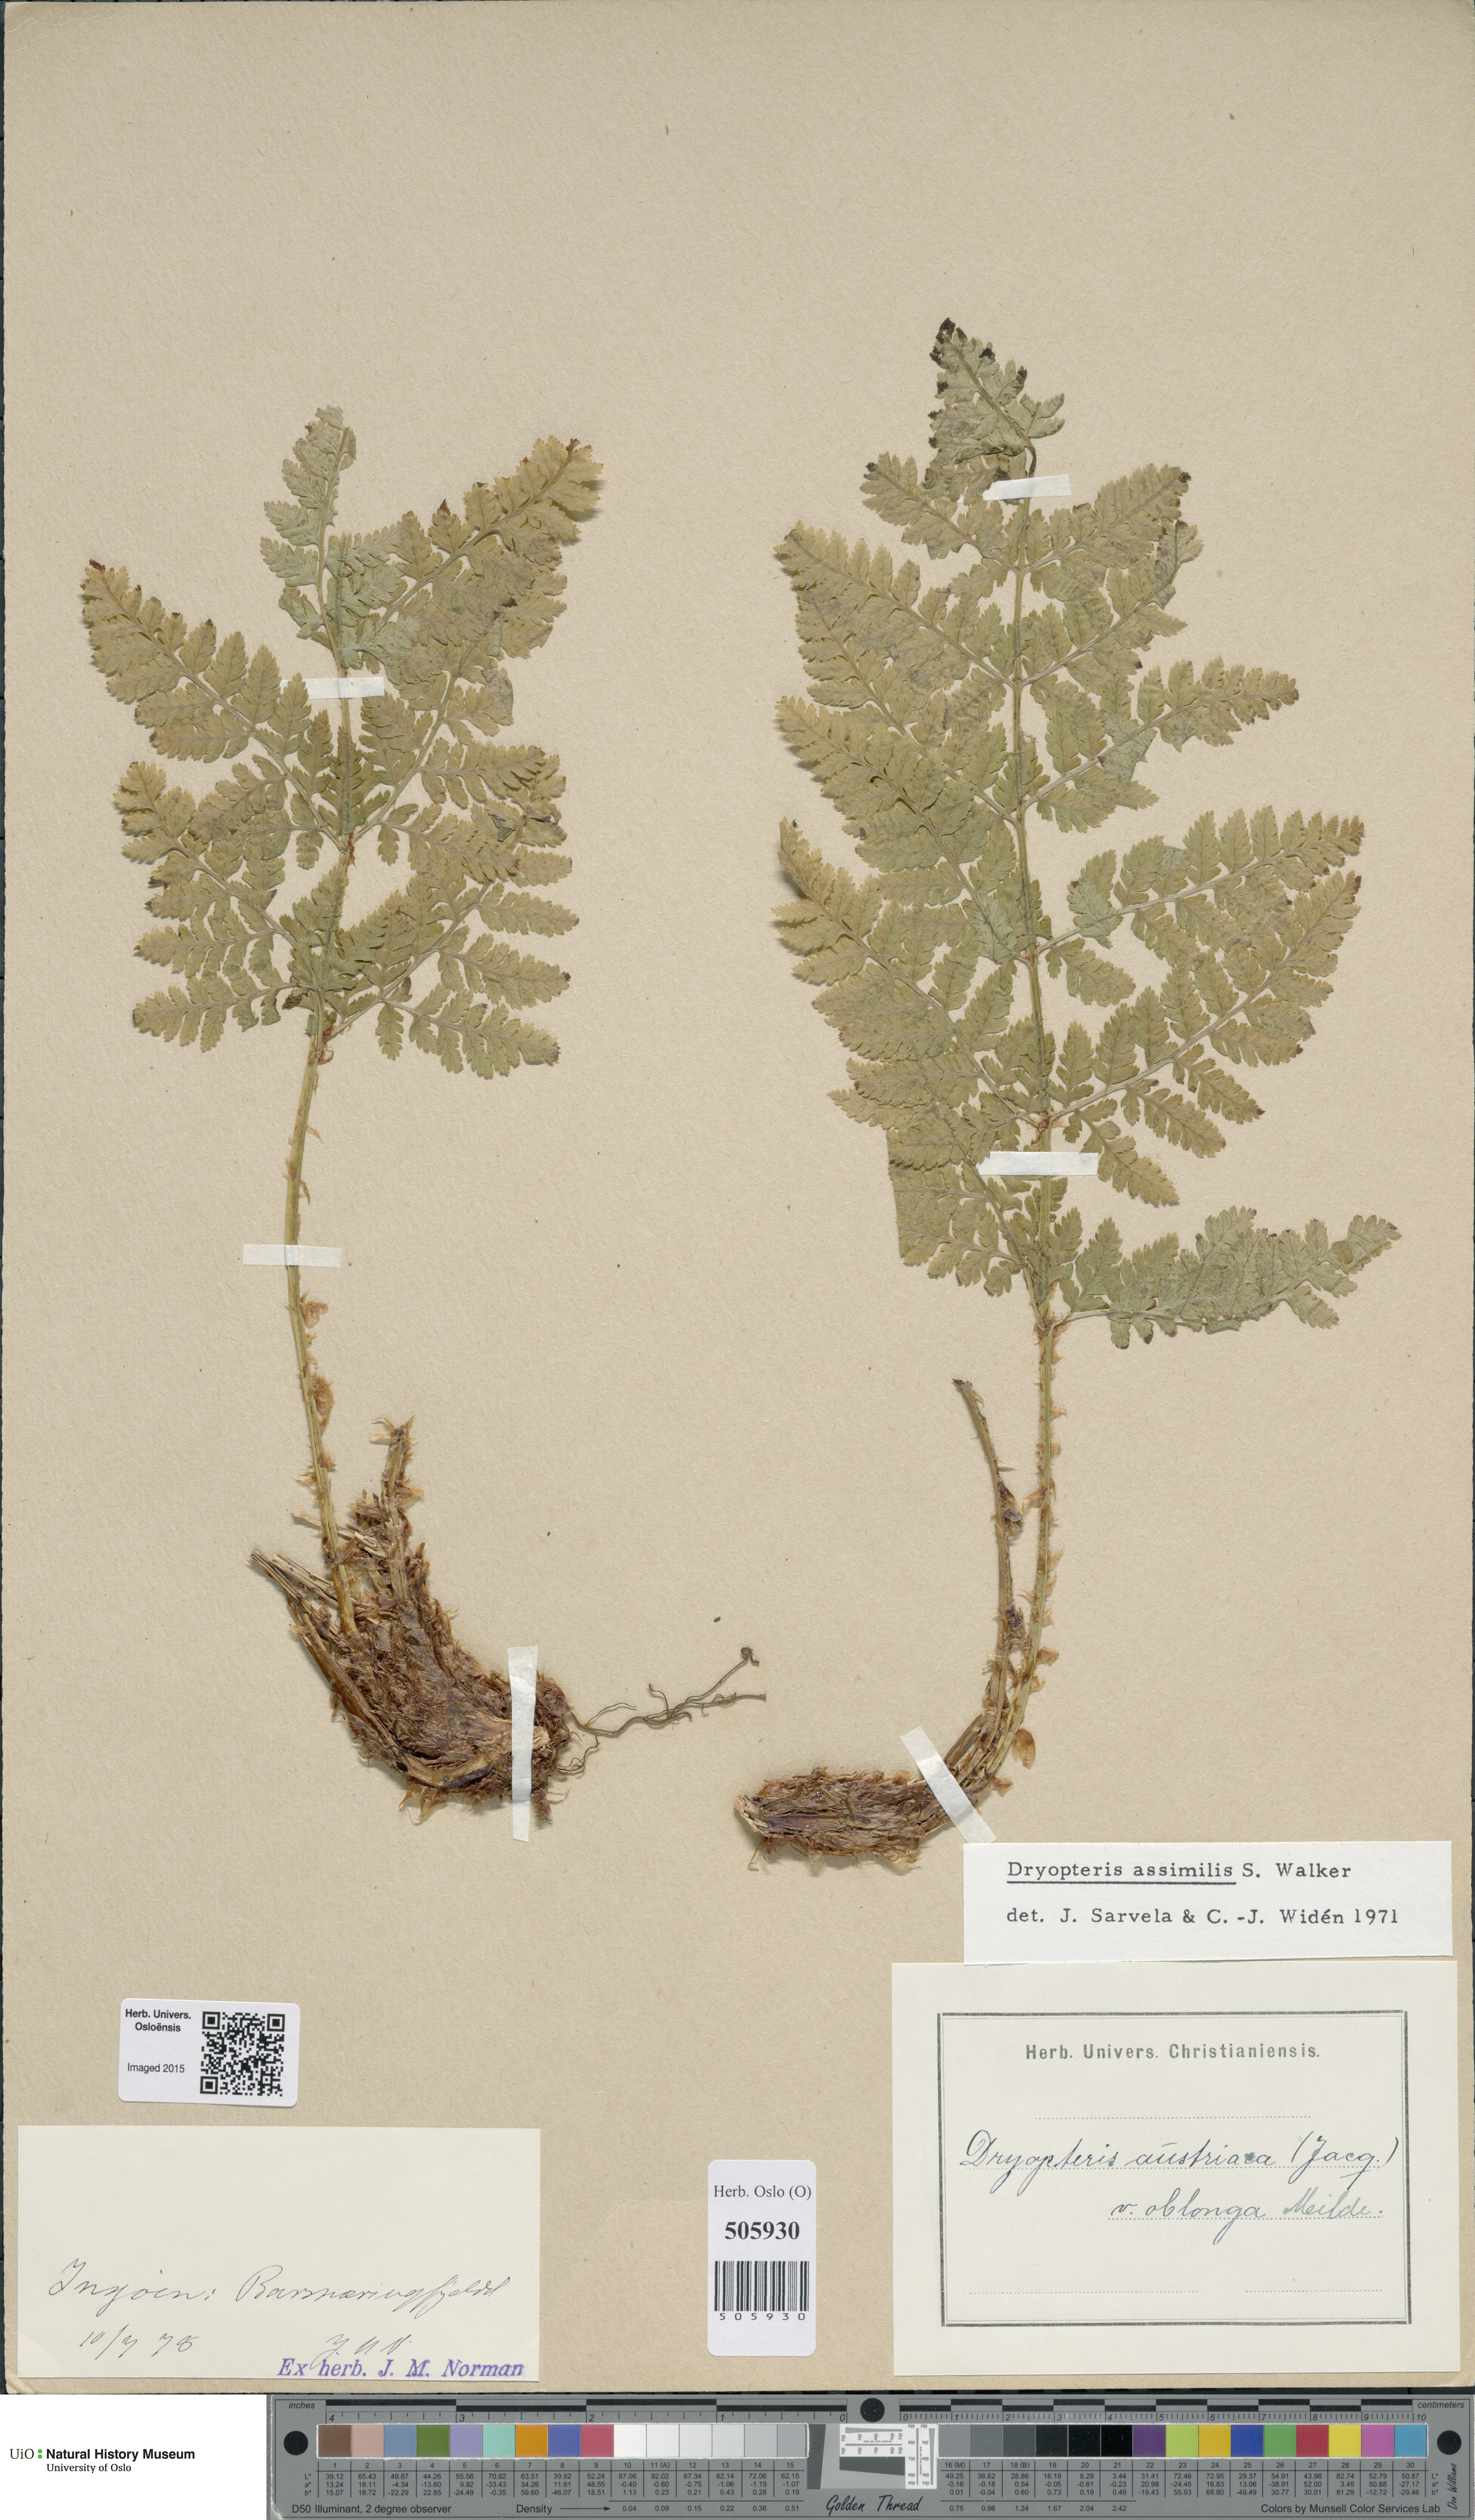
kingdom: Plantae
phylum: Tracheophyta
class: Polypodiopsida
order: Polypodiales
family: Dryopteridaceae
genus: Dryopteris
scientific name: Dryopteris expansa
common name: Northern buckler fern
